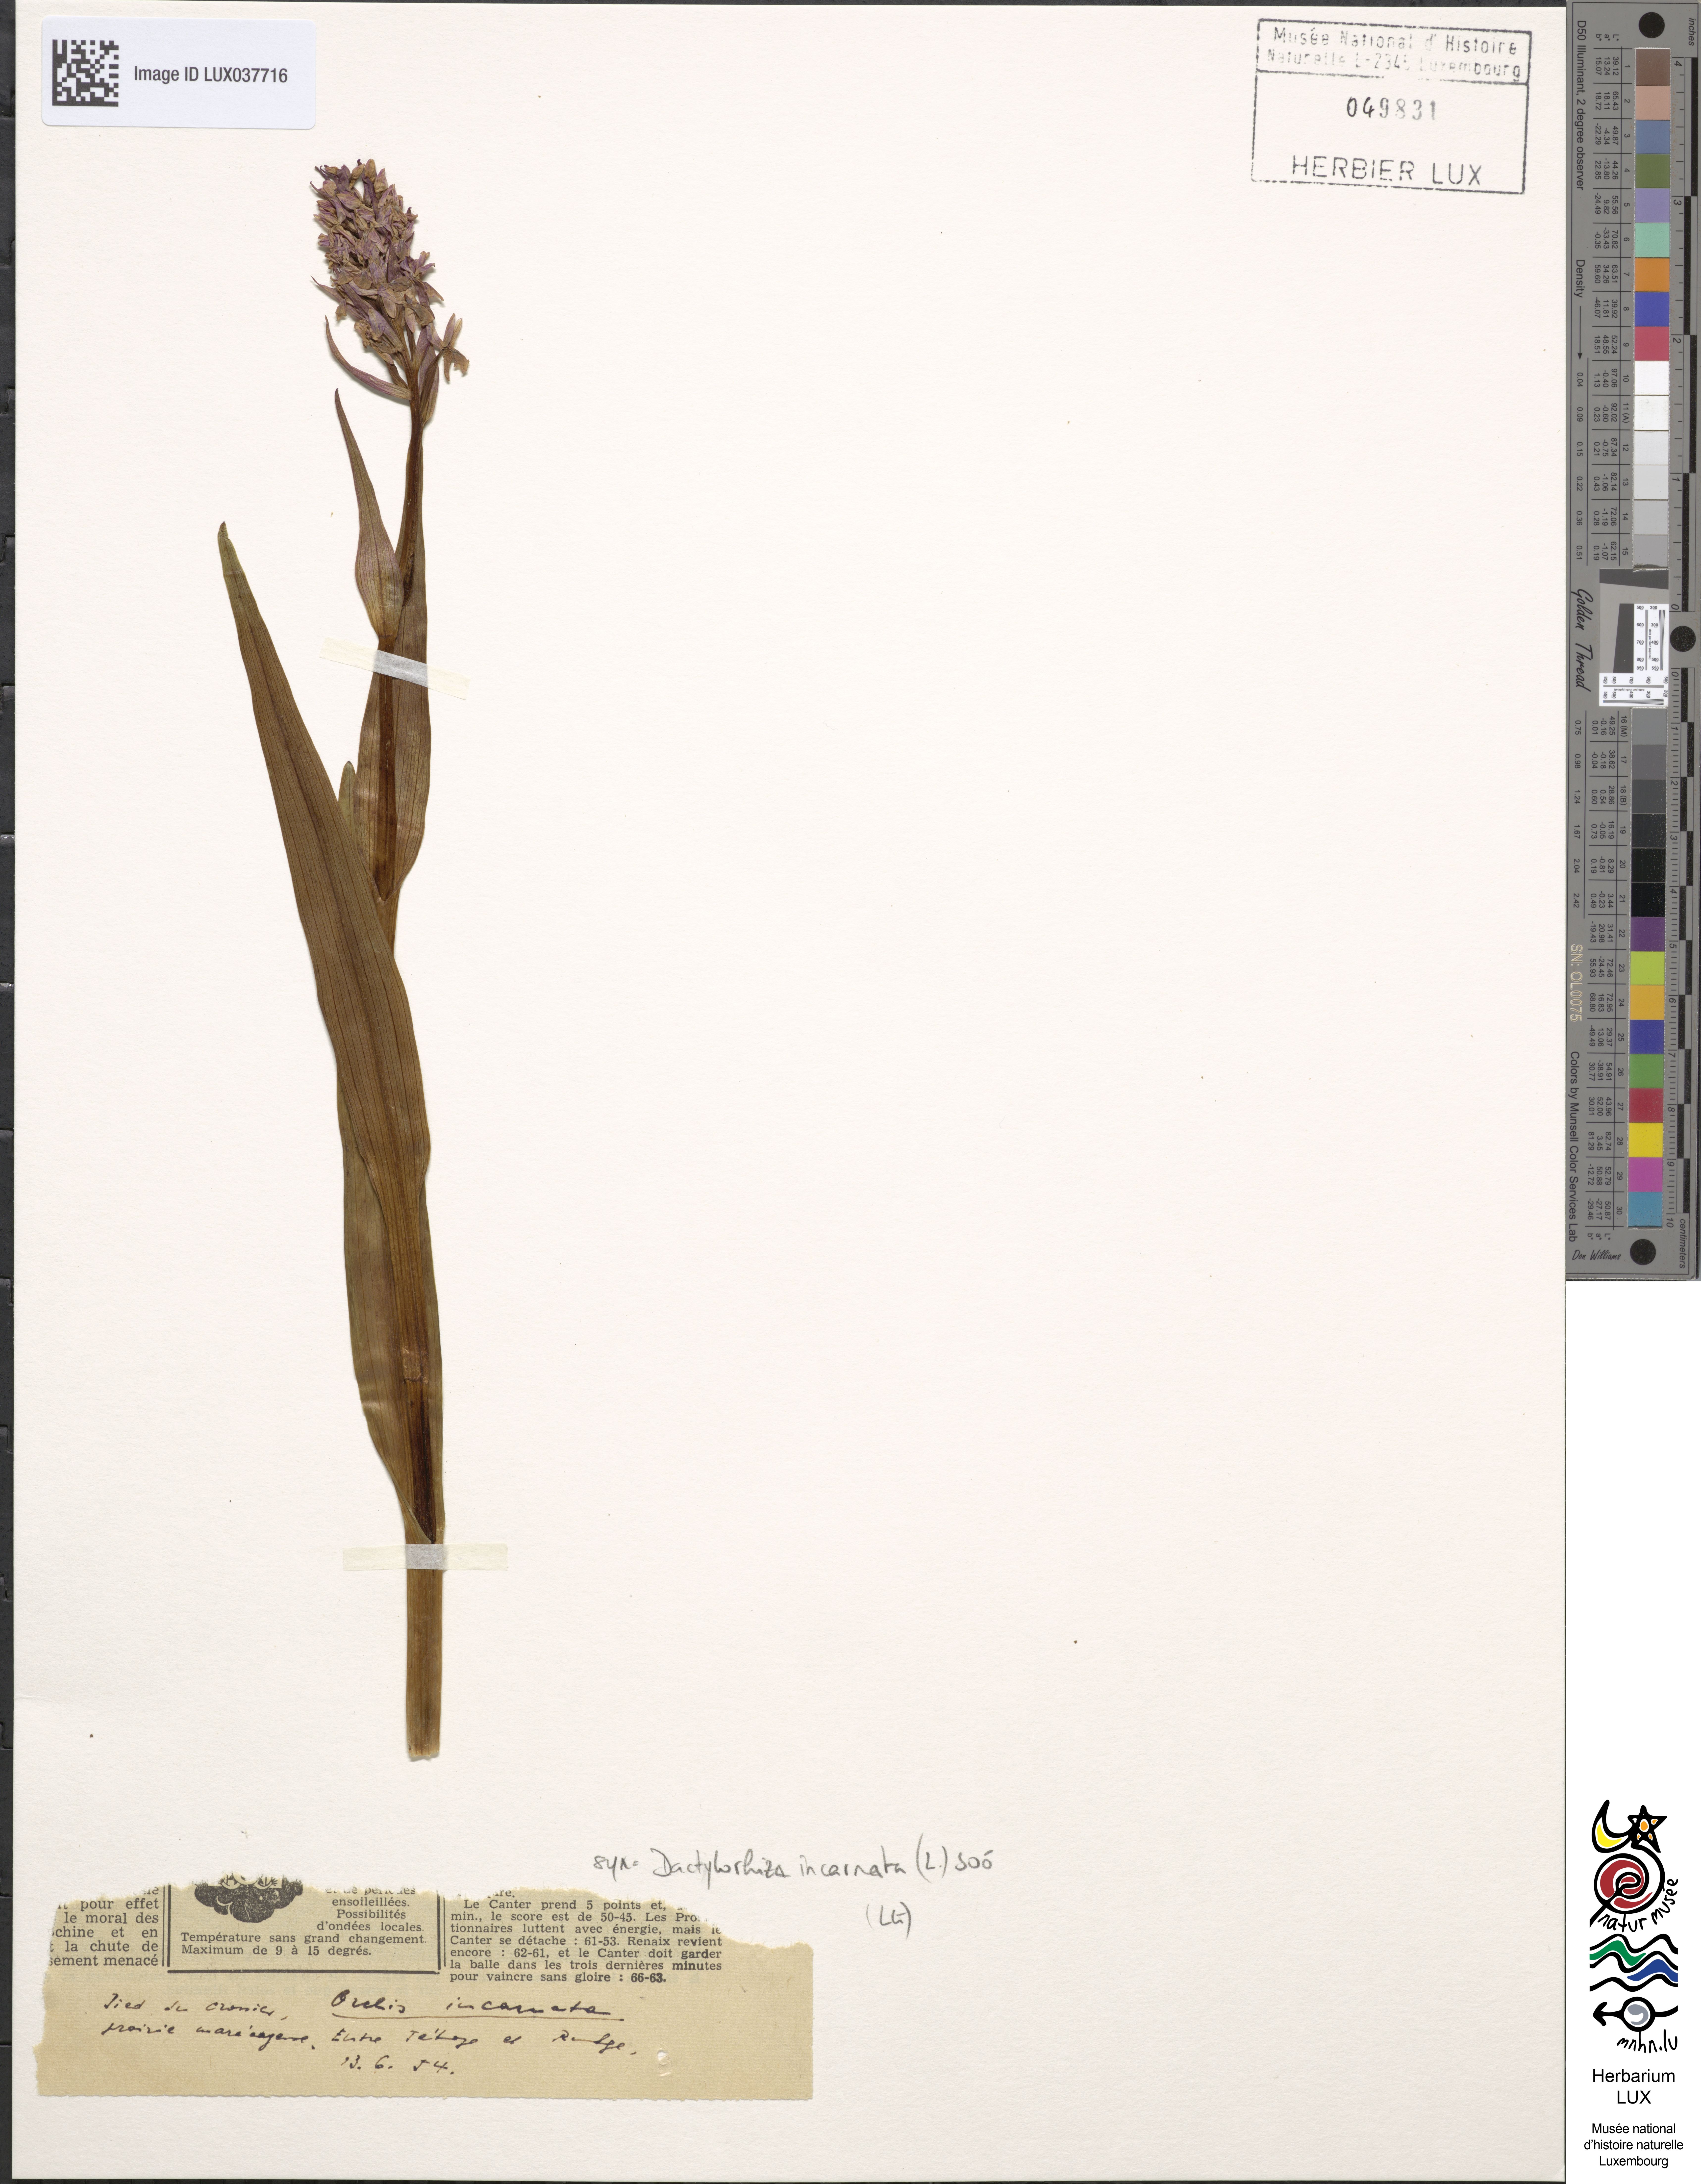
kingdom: Plantae
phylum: Tracheophyta
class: Liliopsida
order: Asparagales
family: Orchidaceae
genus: Dactylorhiza
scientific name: Dactylorhiza
